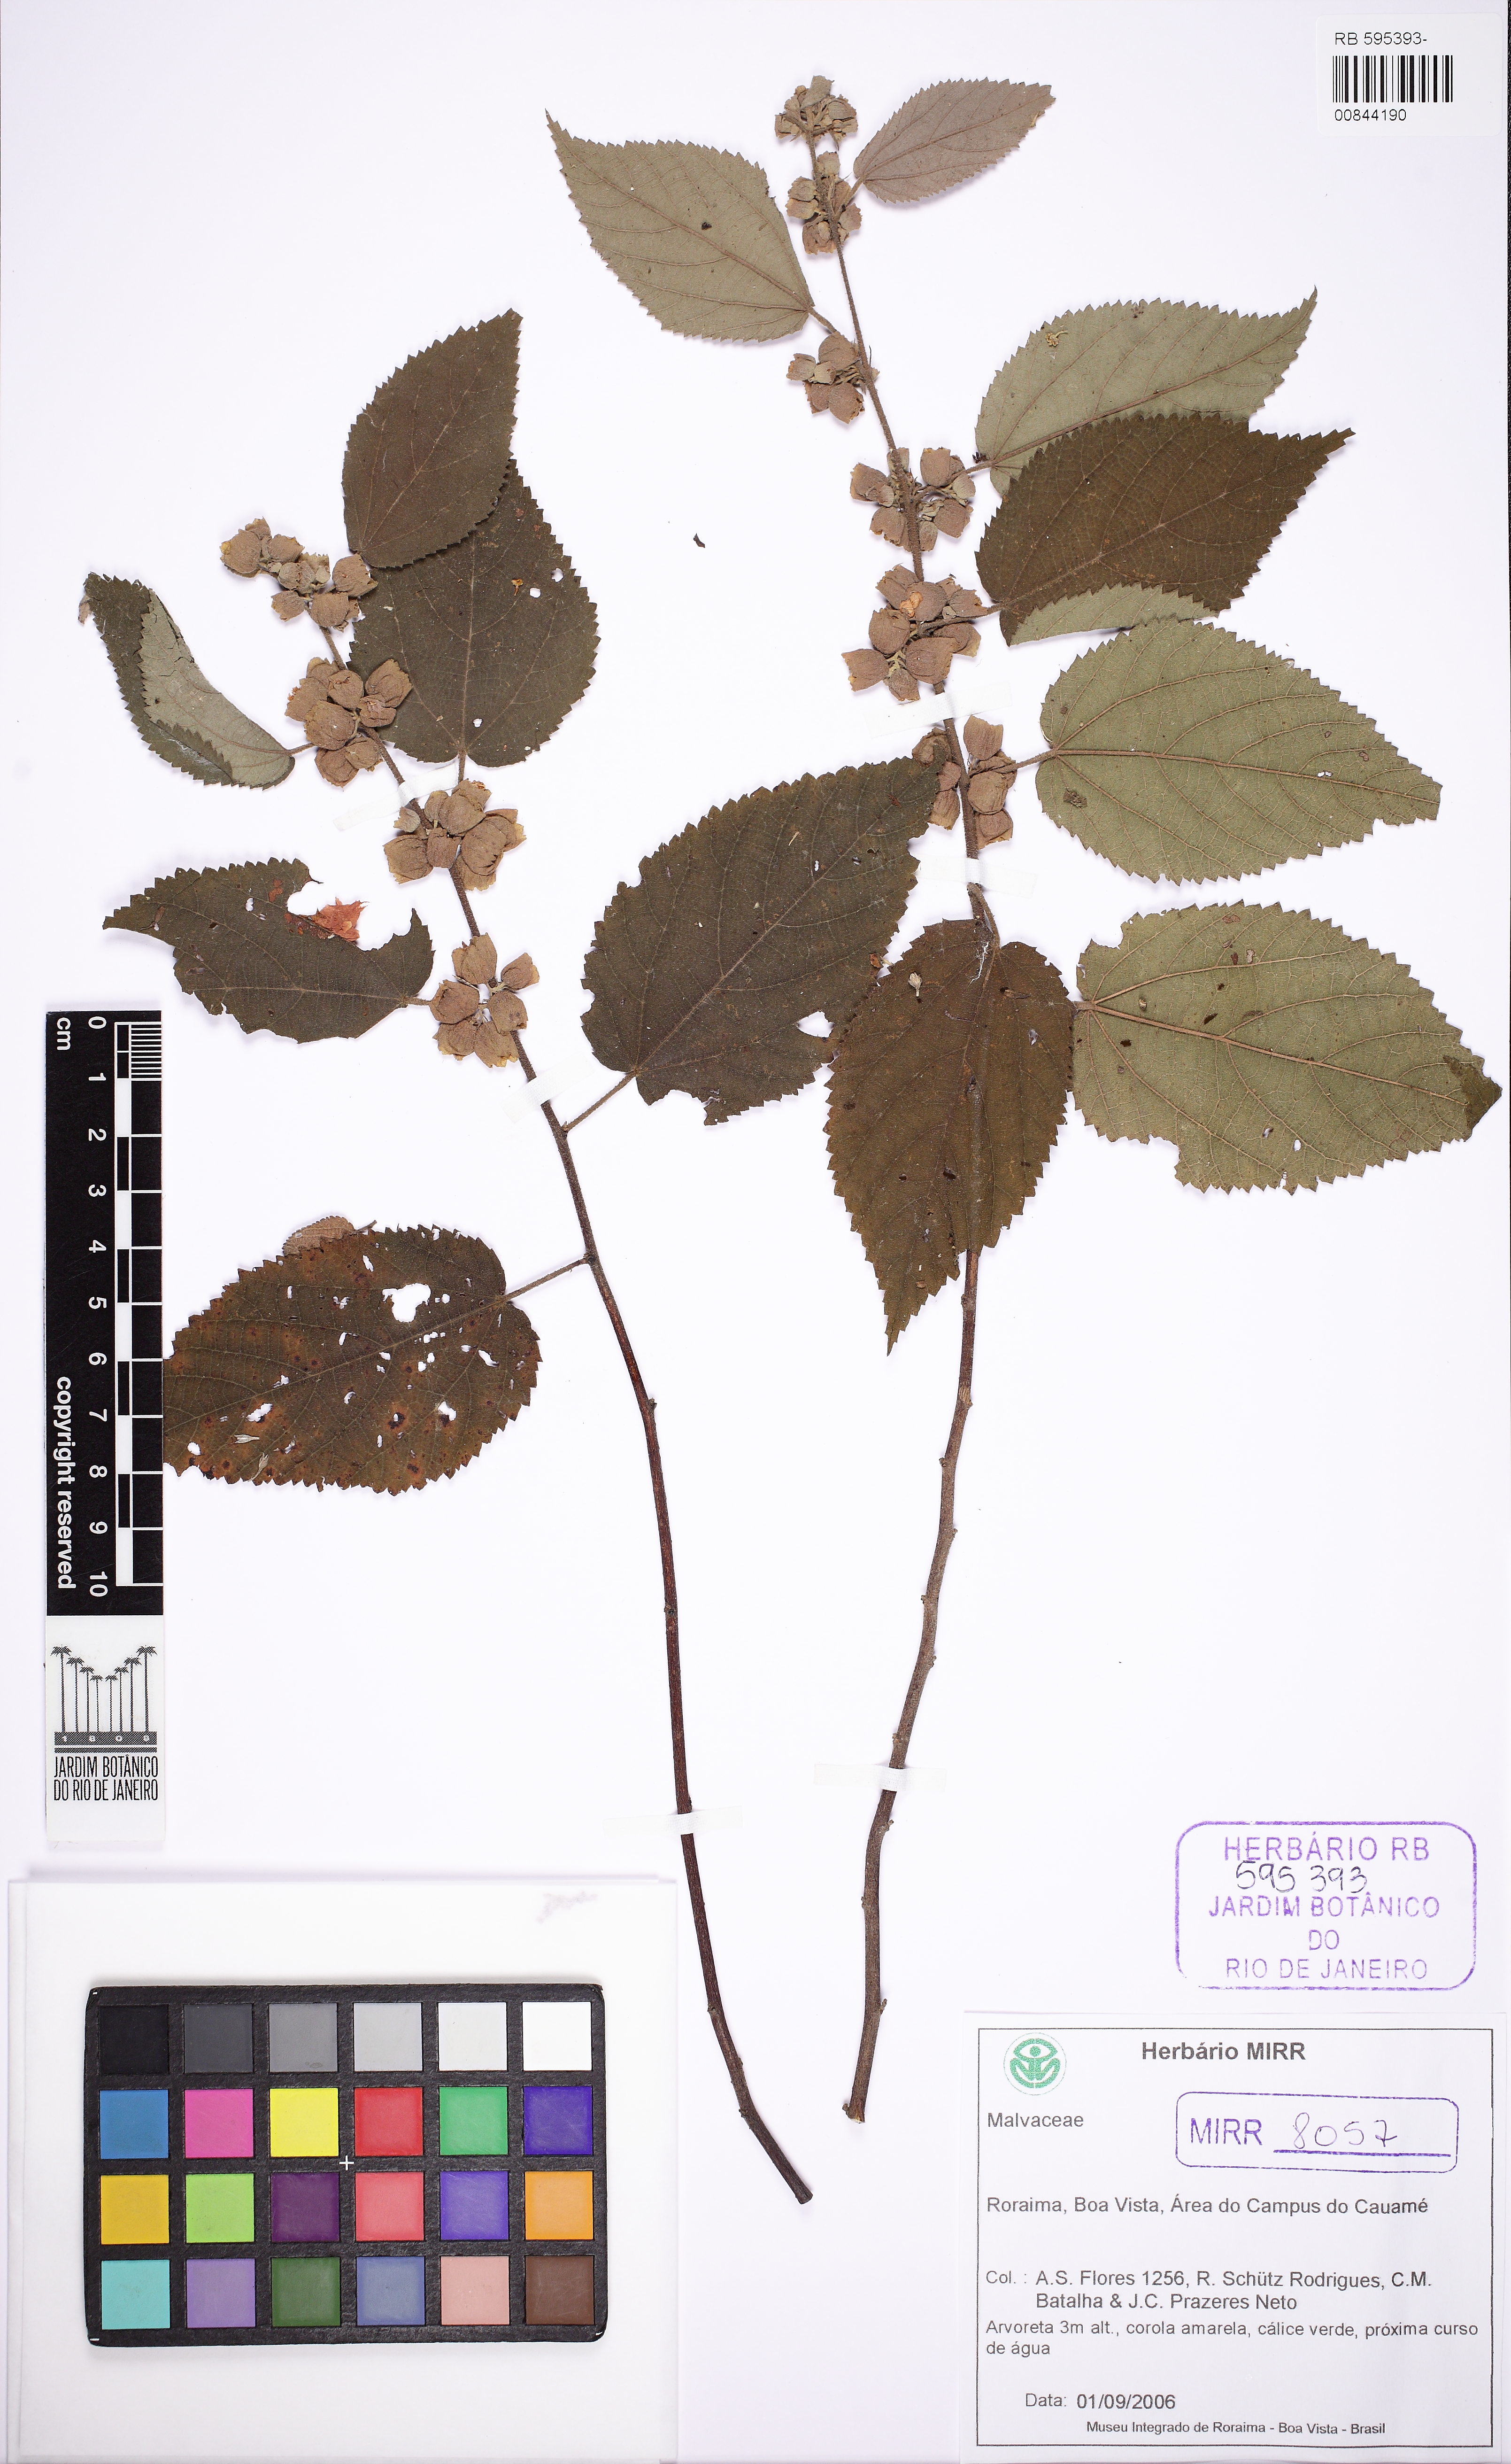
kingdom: Plantae
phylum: Tracheophyta
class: Magnoliopsida
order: Malvales
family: Malvaceae
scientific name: Malvaceae
